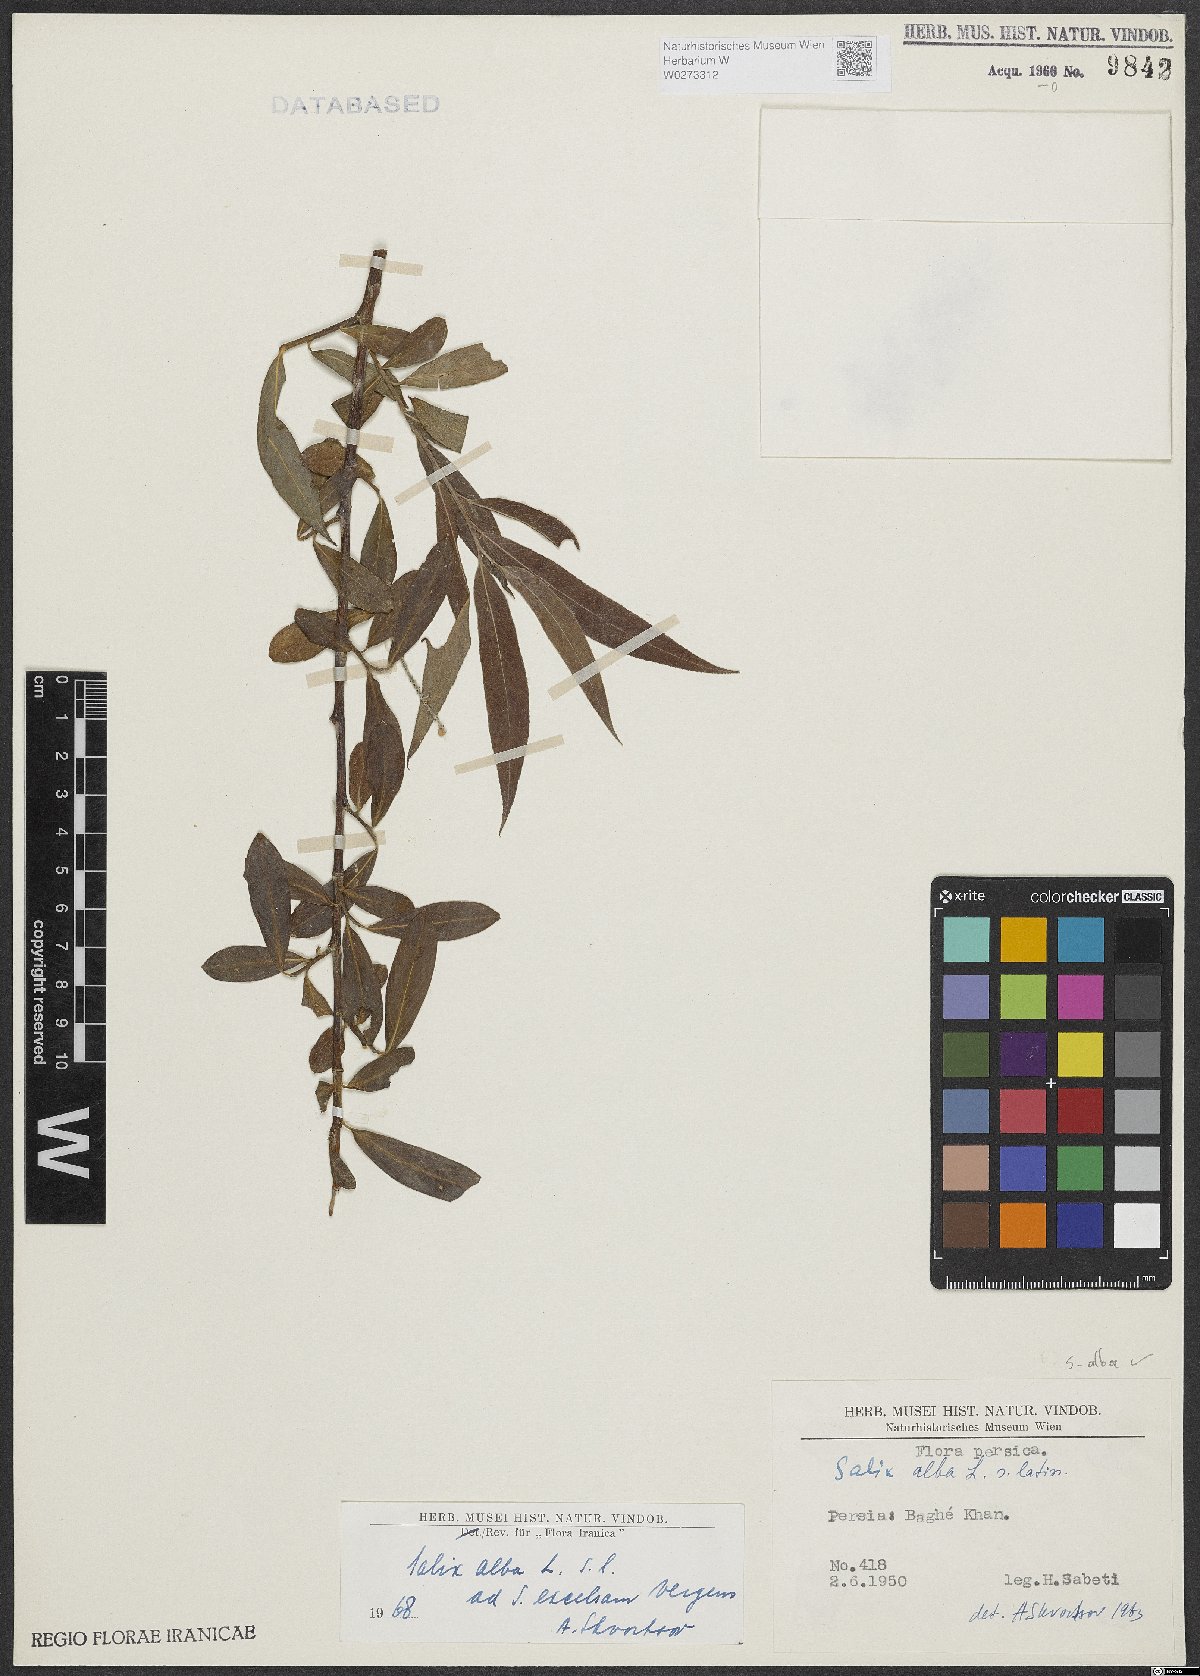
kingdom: Plantae
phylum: Tracheophyta
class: Magnoliopsida
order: Malpighiales
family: Salicaceae
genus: Salix
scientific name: Salix alba
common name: White willow
